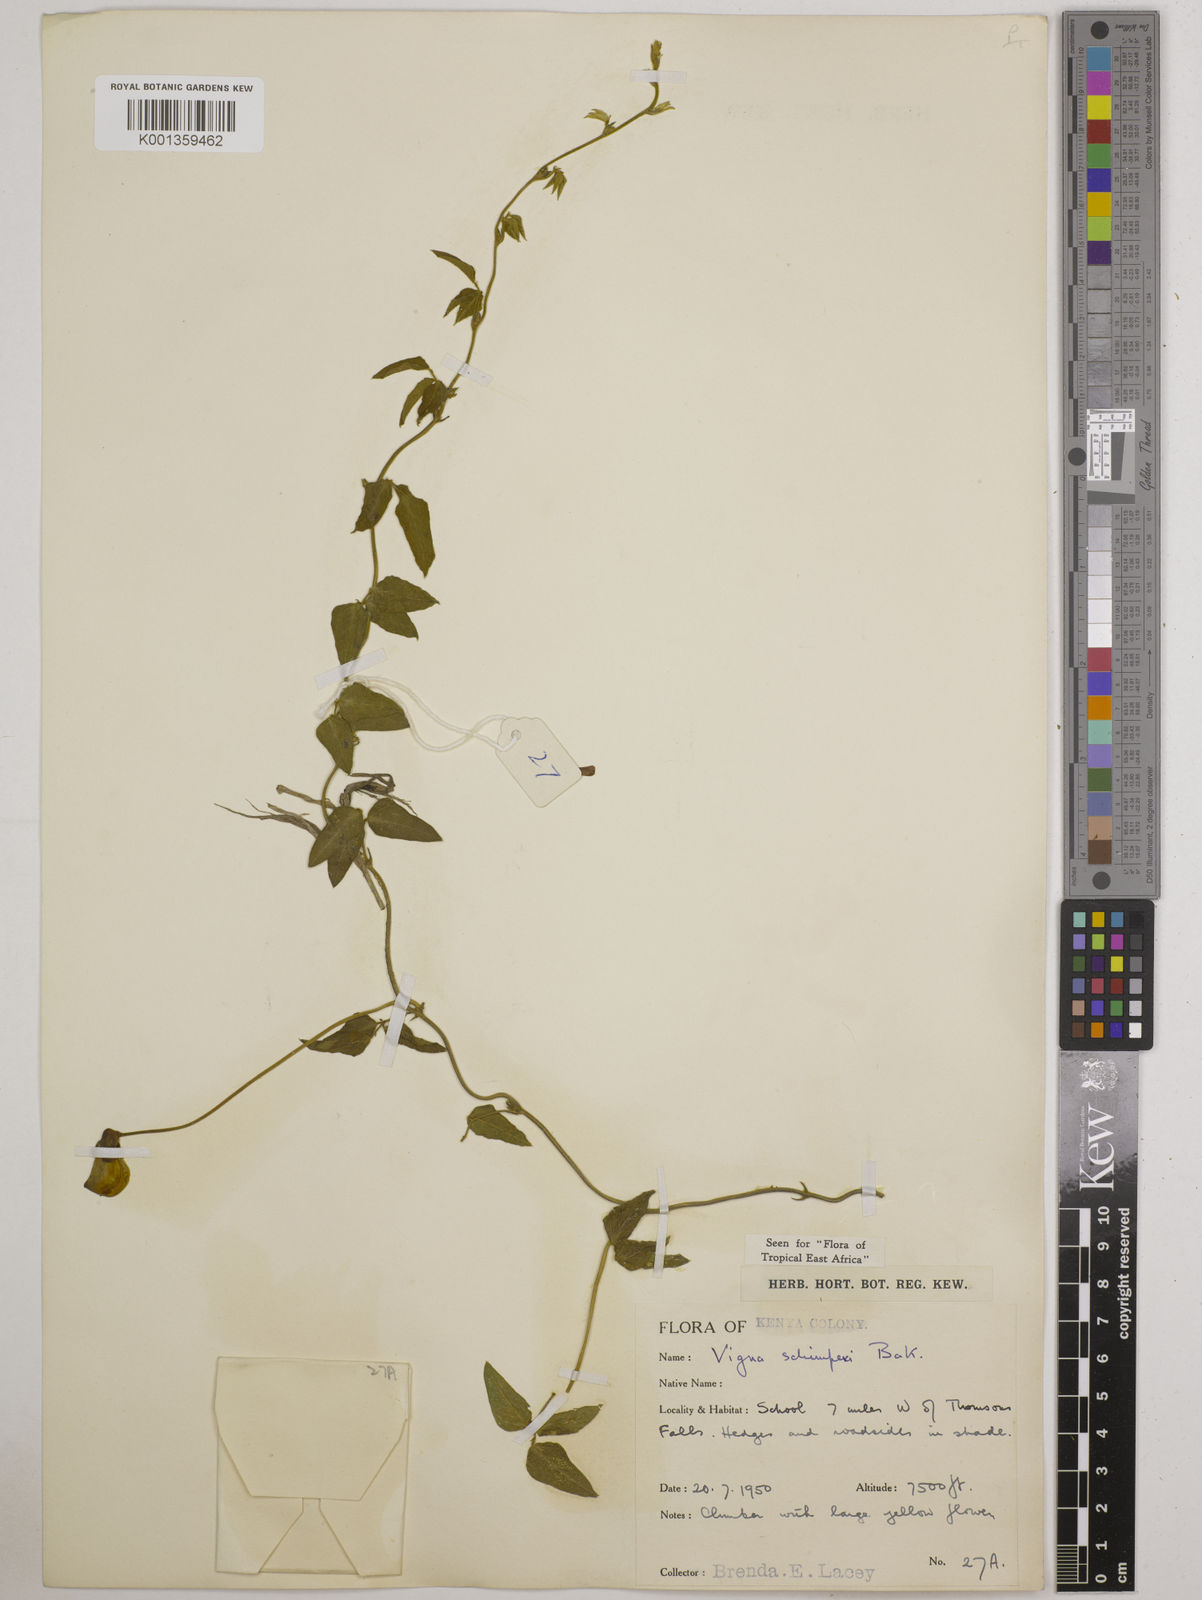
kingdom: Plantae
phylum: Tracheophyta
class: Magnoliopsida
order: Fabales
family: Fabaceae
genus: Vigna
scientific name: Vigna schimperi
